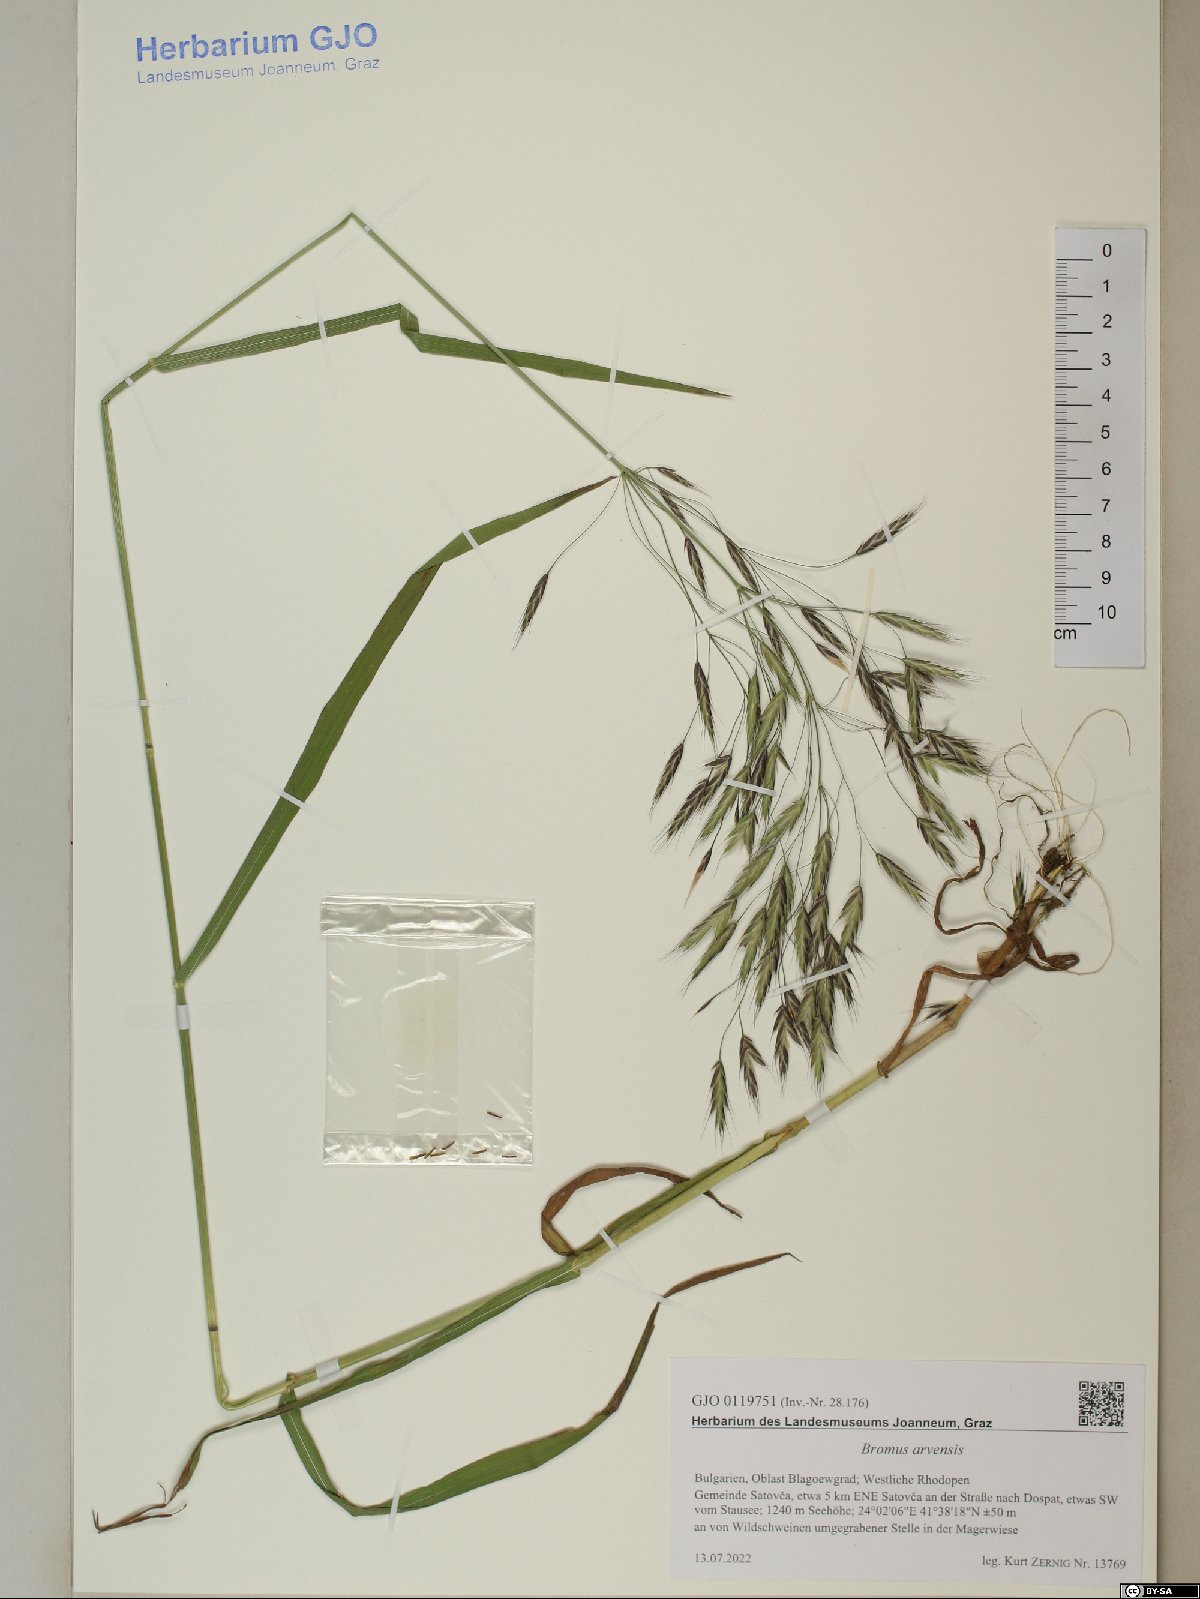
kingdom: Plantae
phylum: Tracheophyta
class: Liliopsida
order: Poales
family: Poaceae
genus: Bromus
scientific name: Bromus arvensis
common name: Field brome
